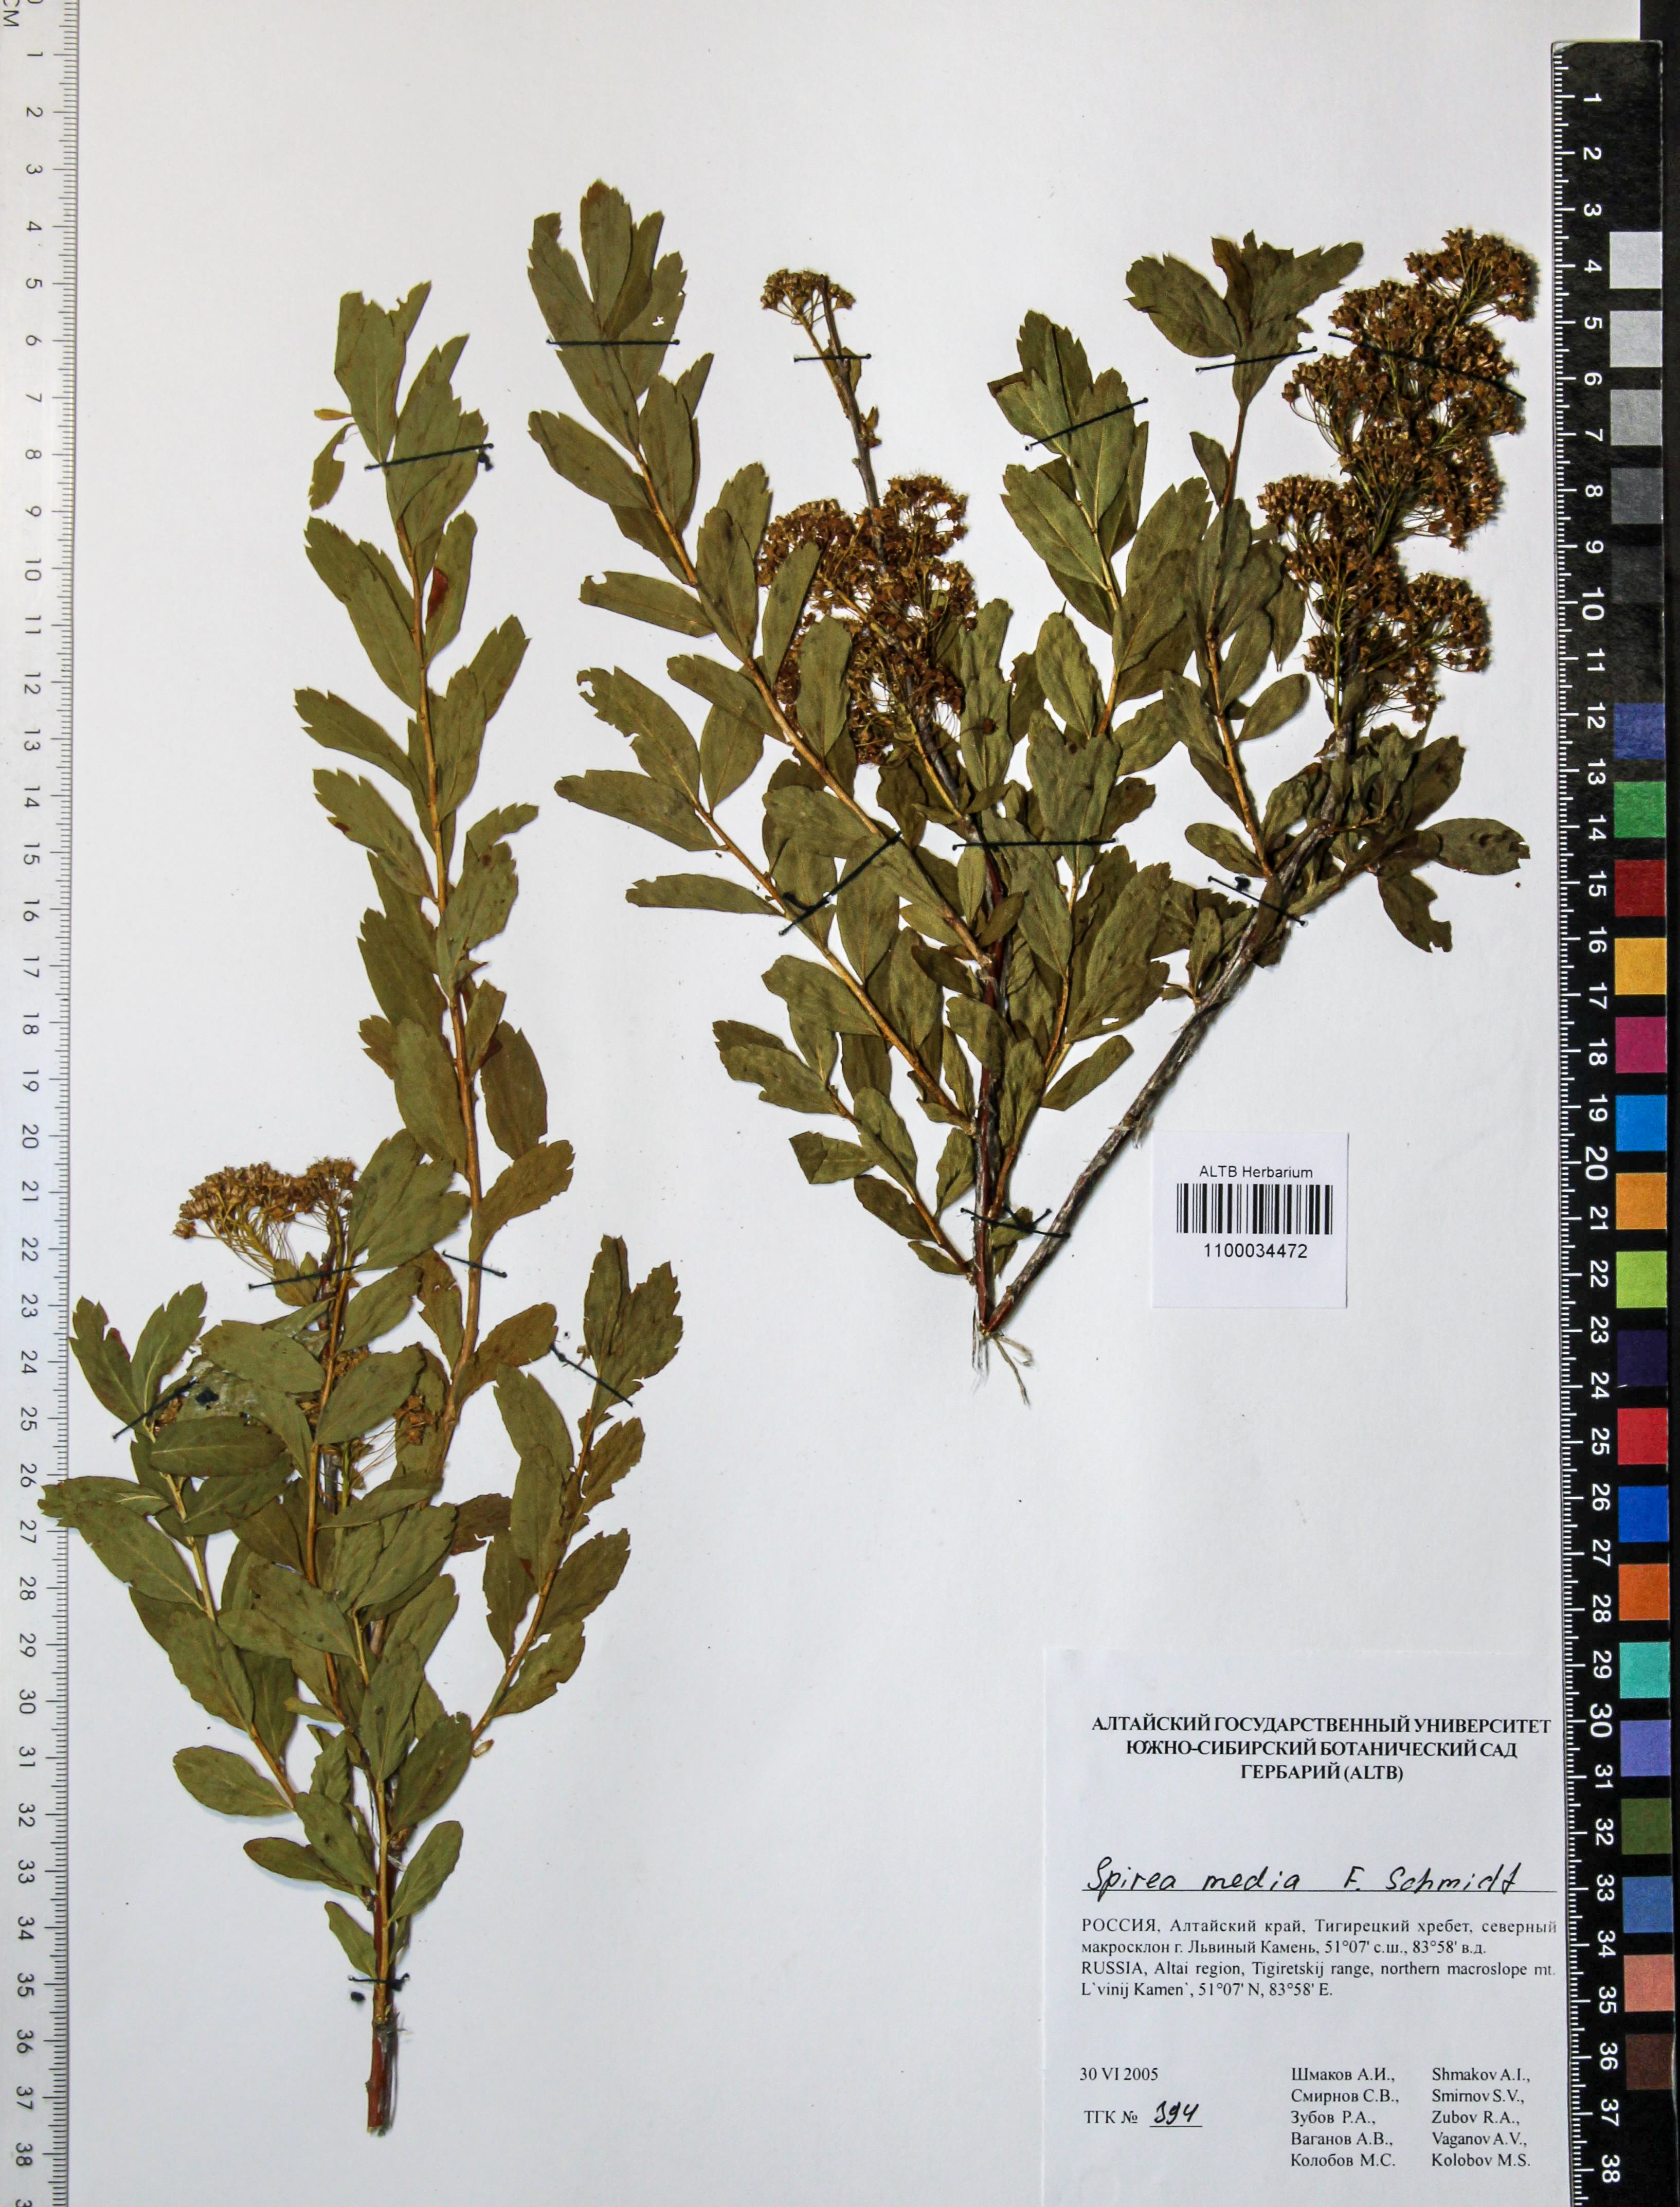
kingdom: Plantae
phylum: Tracheophyta
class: Magnoliopsida
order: Rosales
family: Rosaceae
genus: Spiraea
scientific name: Spiraea media
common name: Russian spiraea
